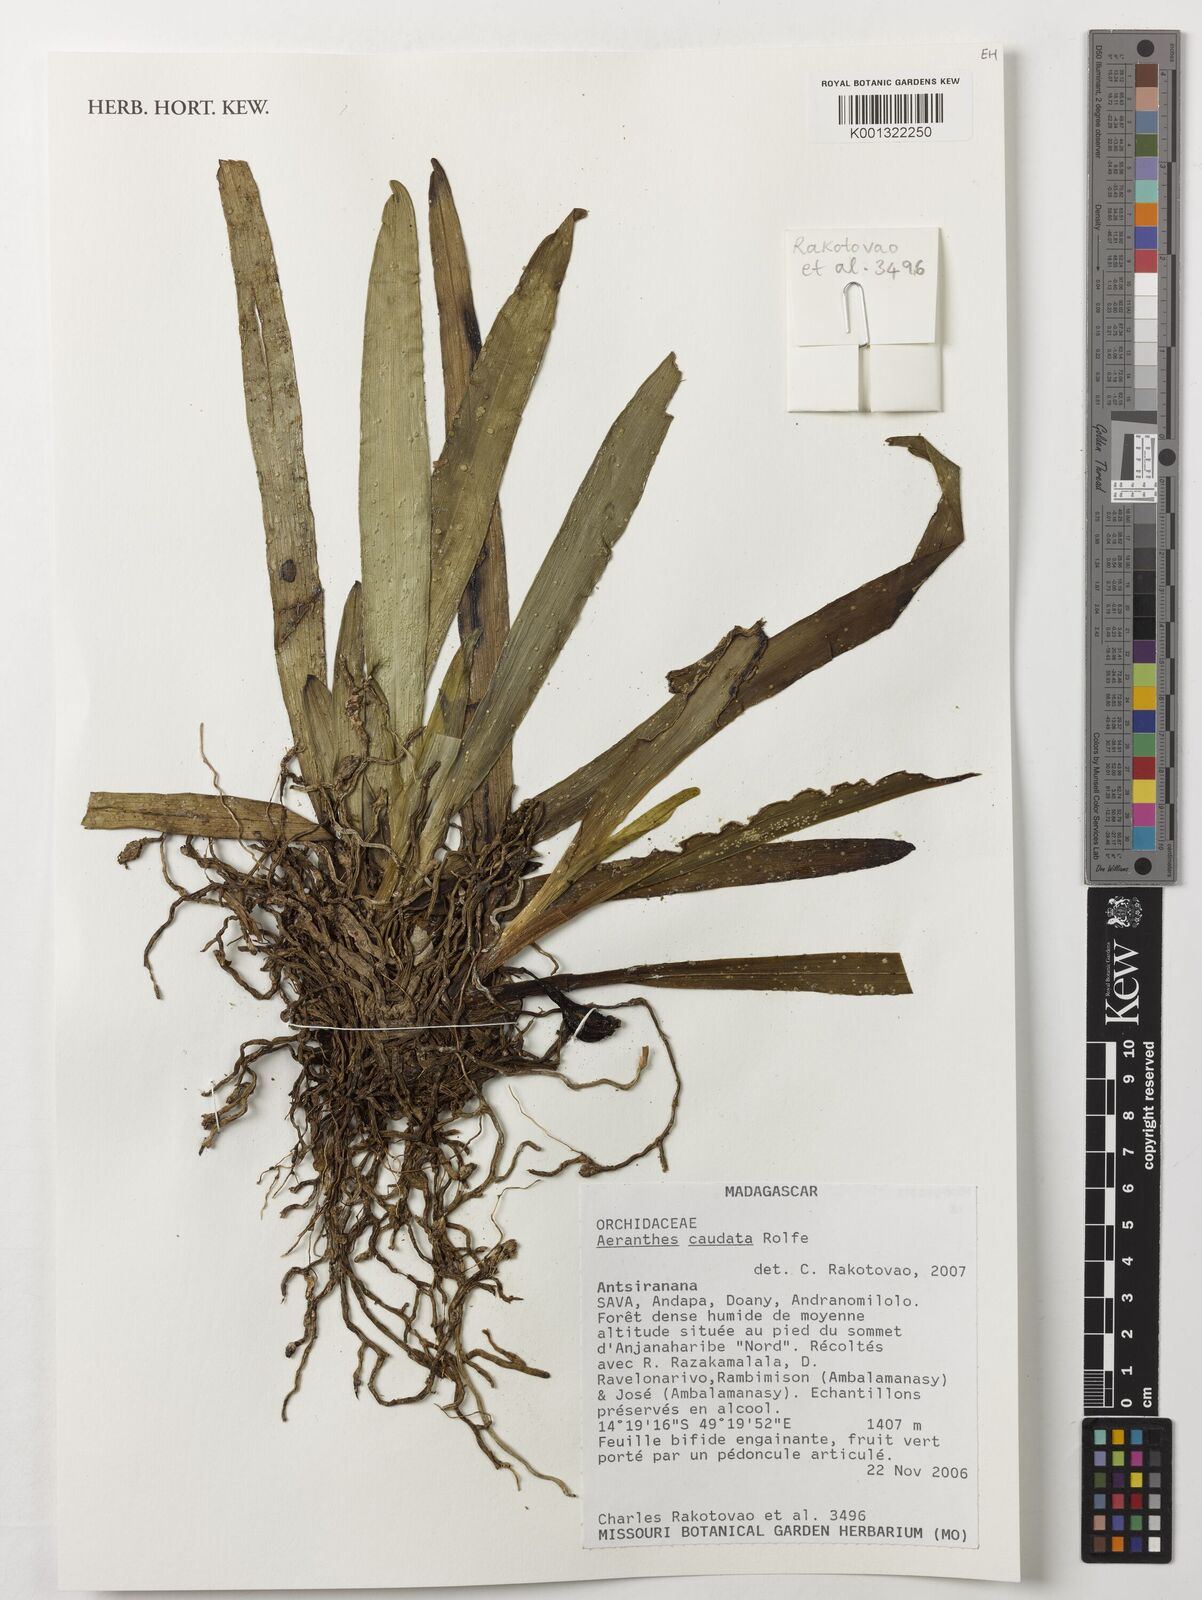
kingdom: Plantae
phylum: Tracheophyta
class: Liliopsida
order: Asparagales
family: Orchidaceae
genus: Aeranthes
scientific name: Aeranthes caudata
